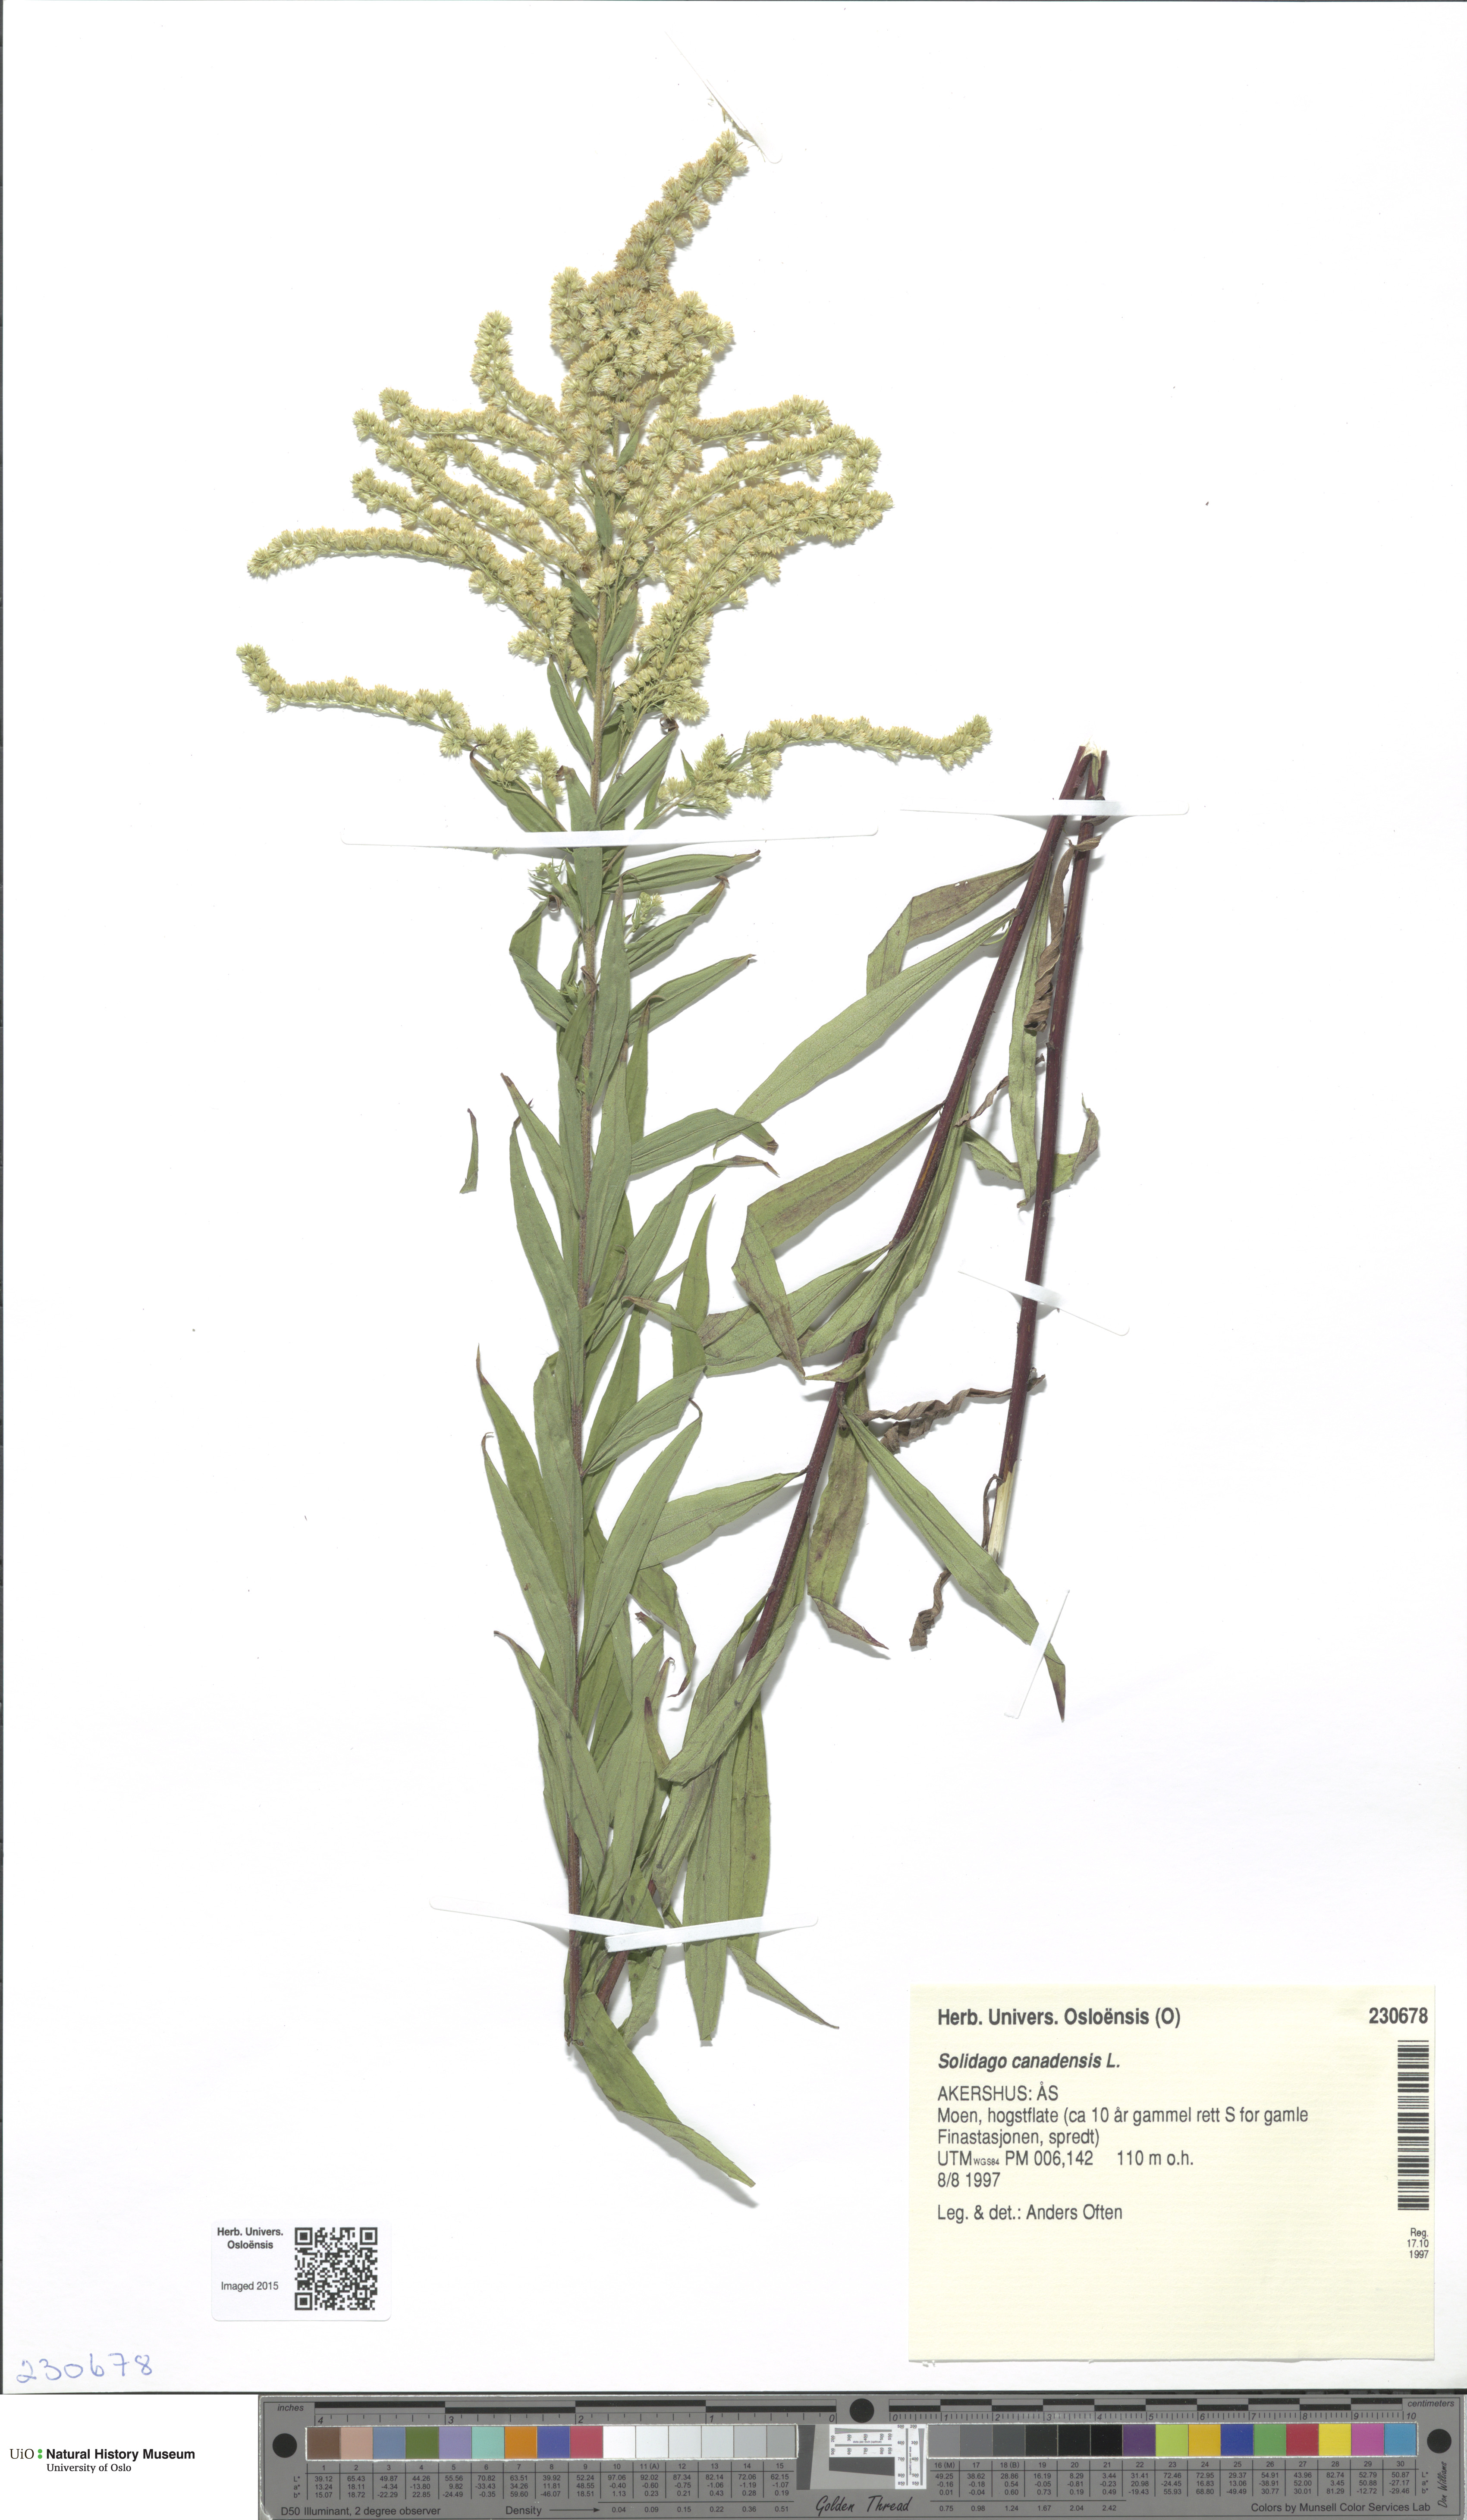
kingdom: Plantae
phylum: Tracheophyta
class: Magnoliopsida
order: Asterales
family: Asteraceae
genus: Solidago
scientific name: Solidago canadensis
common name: Canada goldenrod
